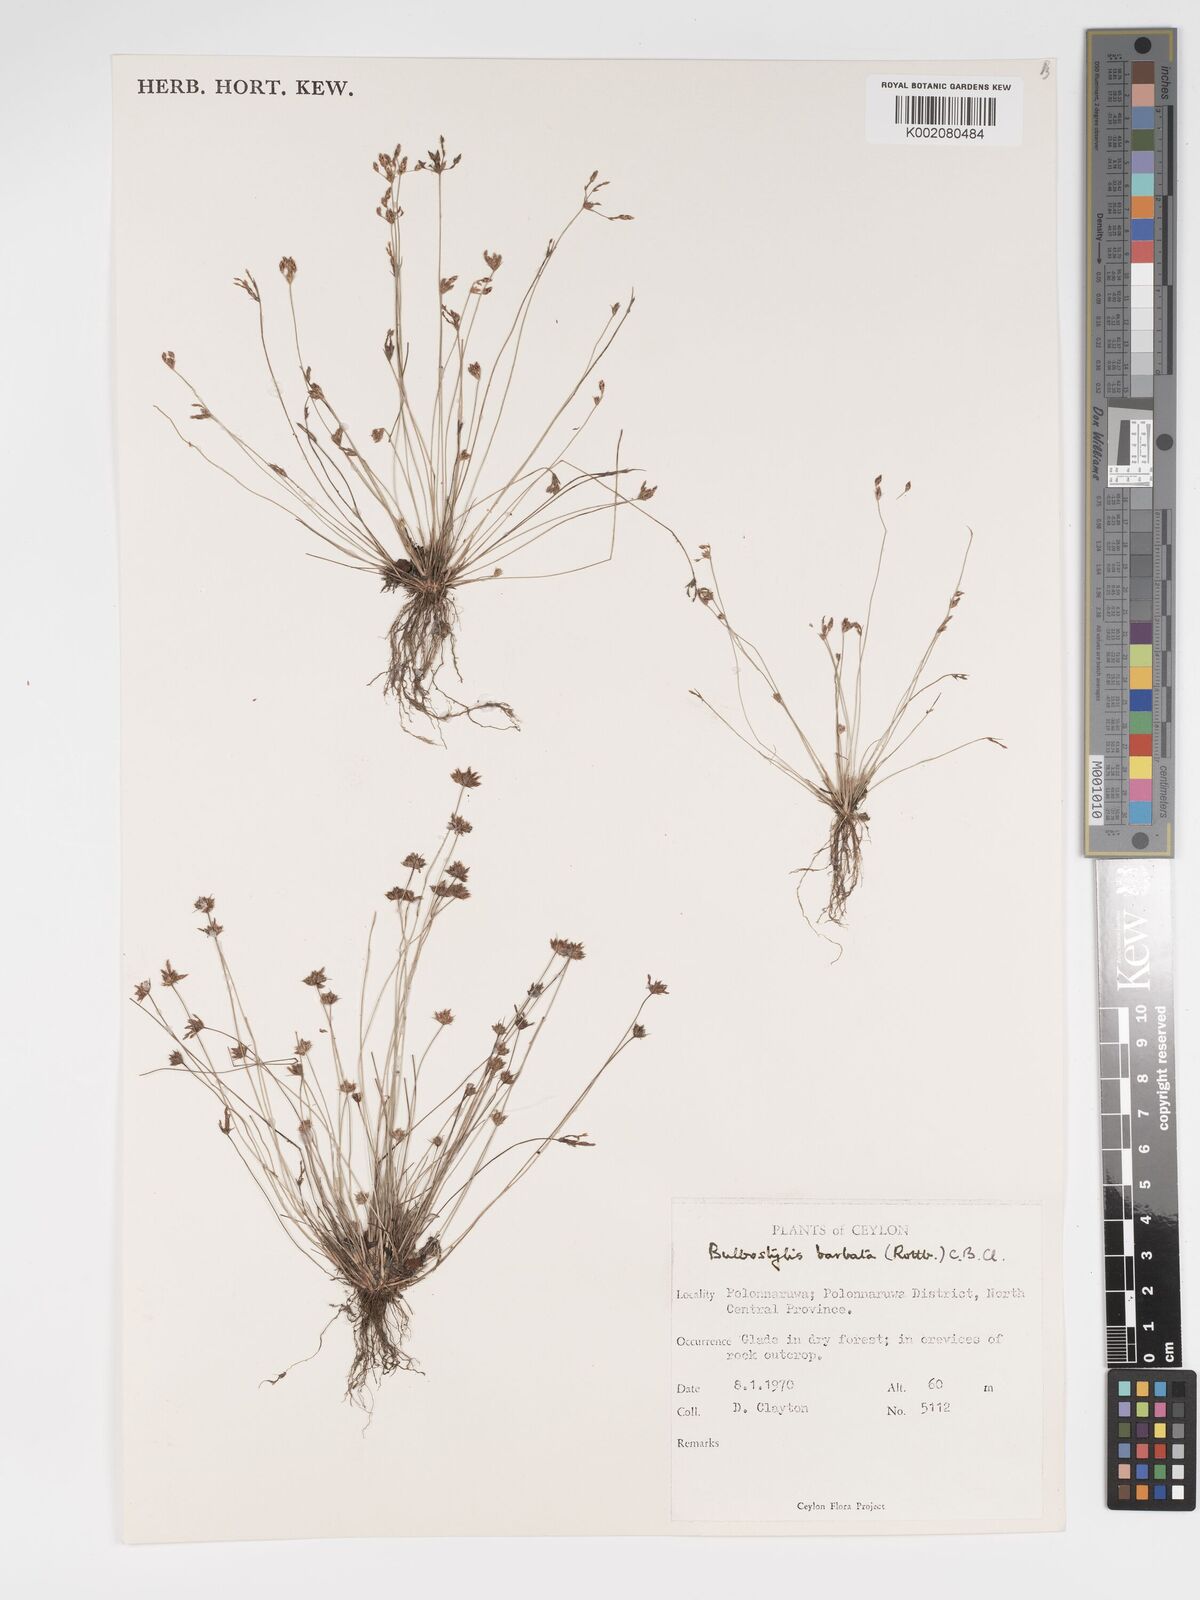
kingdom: Plantae
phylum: Tracheophyta
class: Liliopsida
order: Poales
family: Cyperaceae
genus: Bulbostylis
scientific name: Bulbostylis barbata
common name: Watergrass
